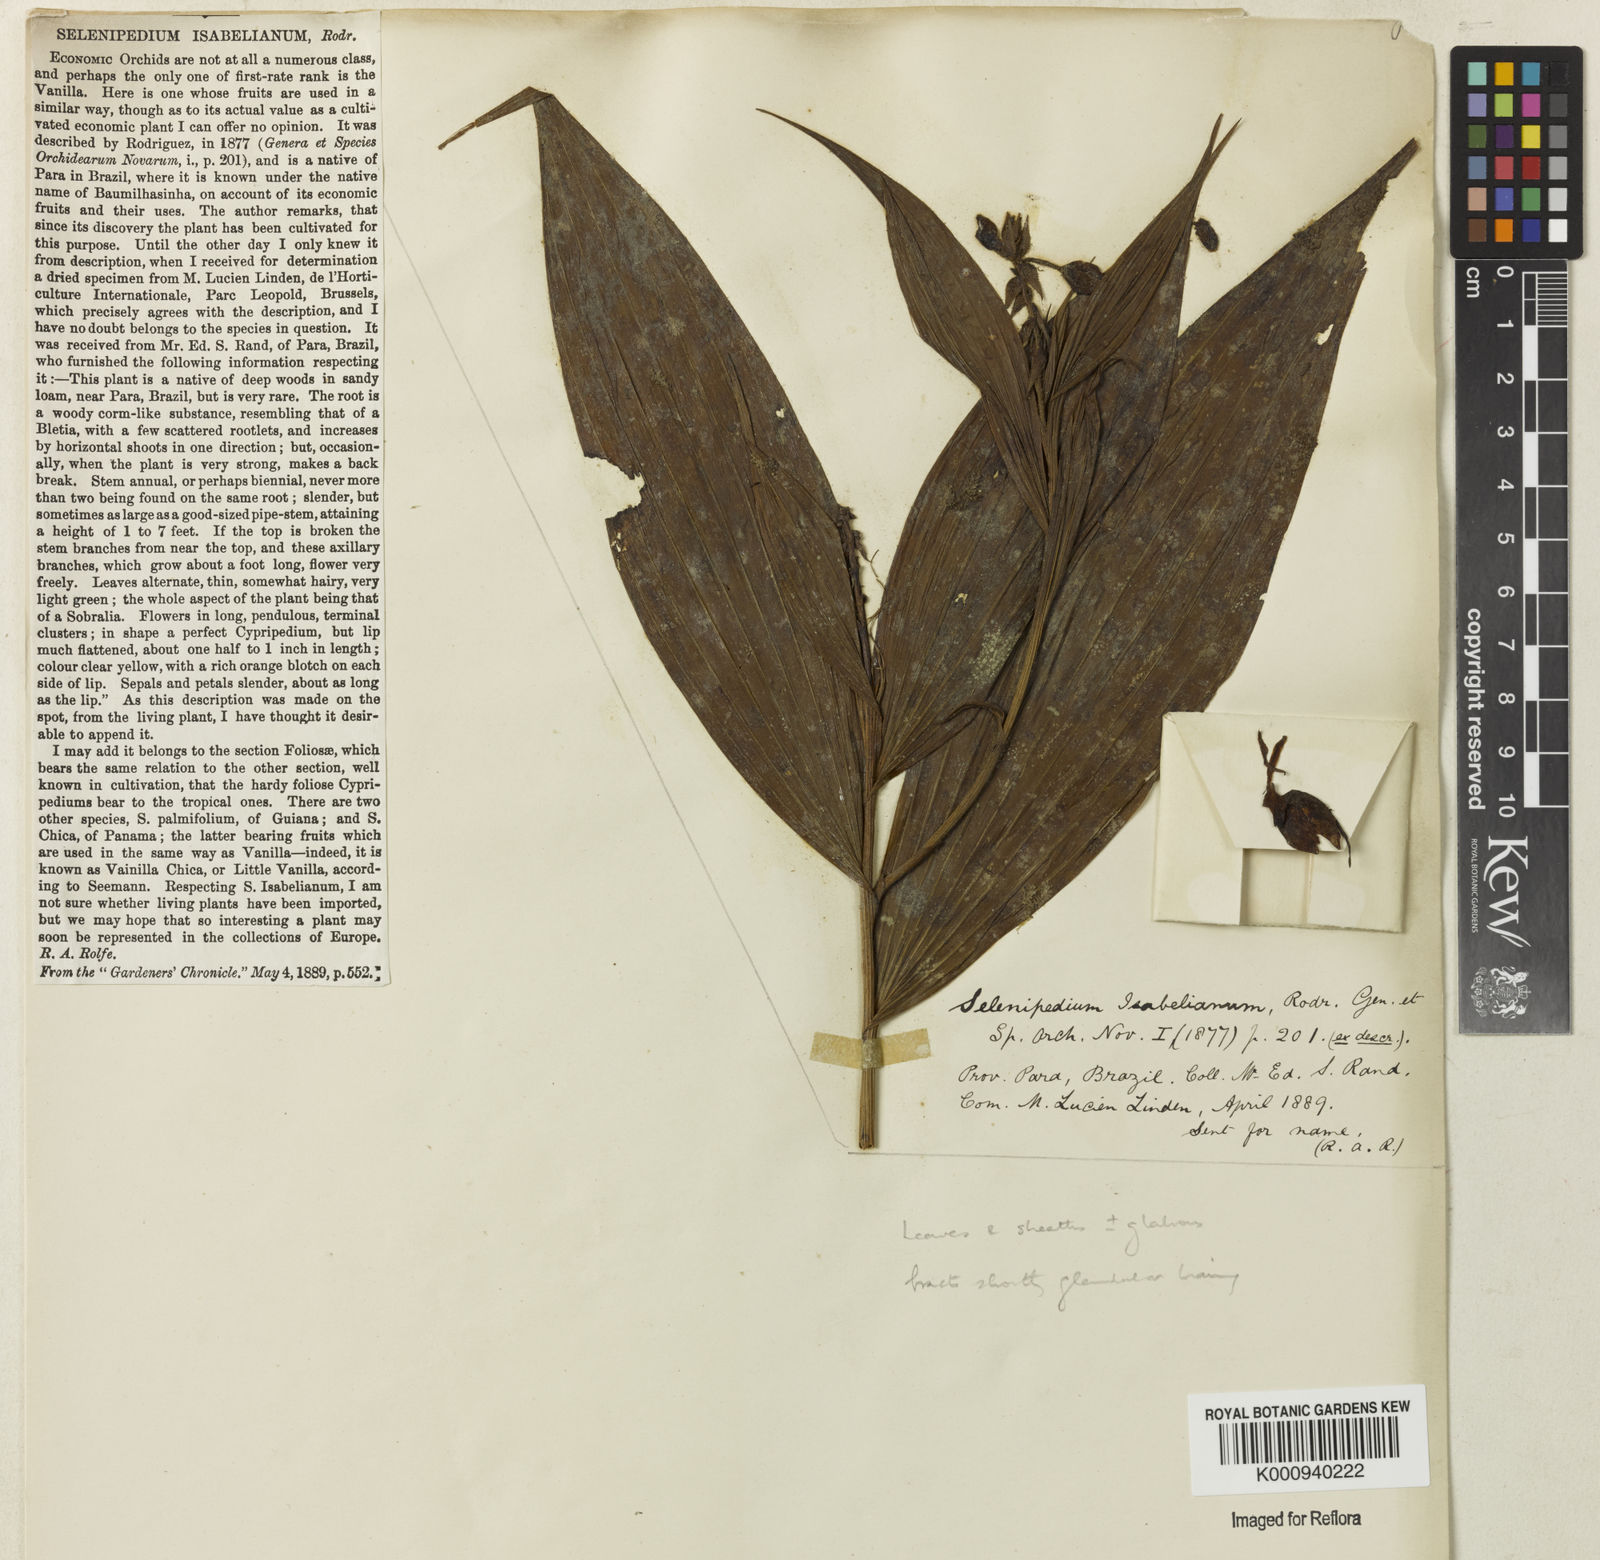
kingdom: Plantae
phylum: Tracheophyta
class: Liliopsida
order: Asparagales
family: Orchidaceae
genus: Selenipedium
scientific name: Selenipedium isabelianum
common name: Isabel's selenipedium
